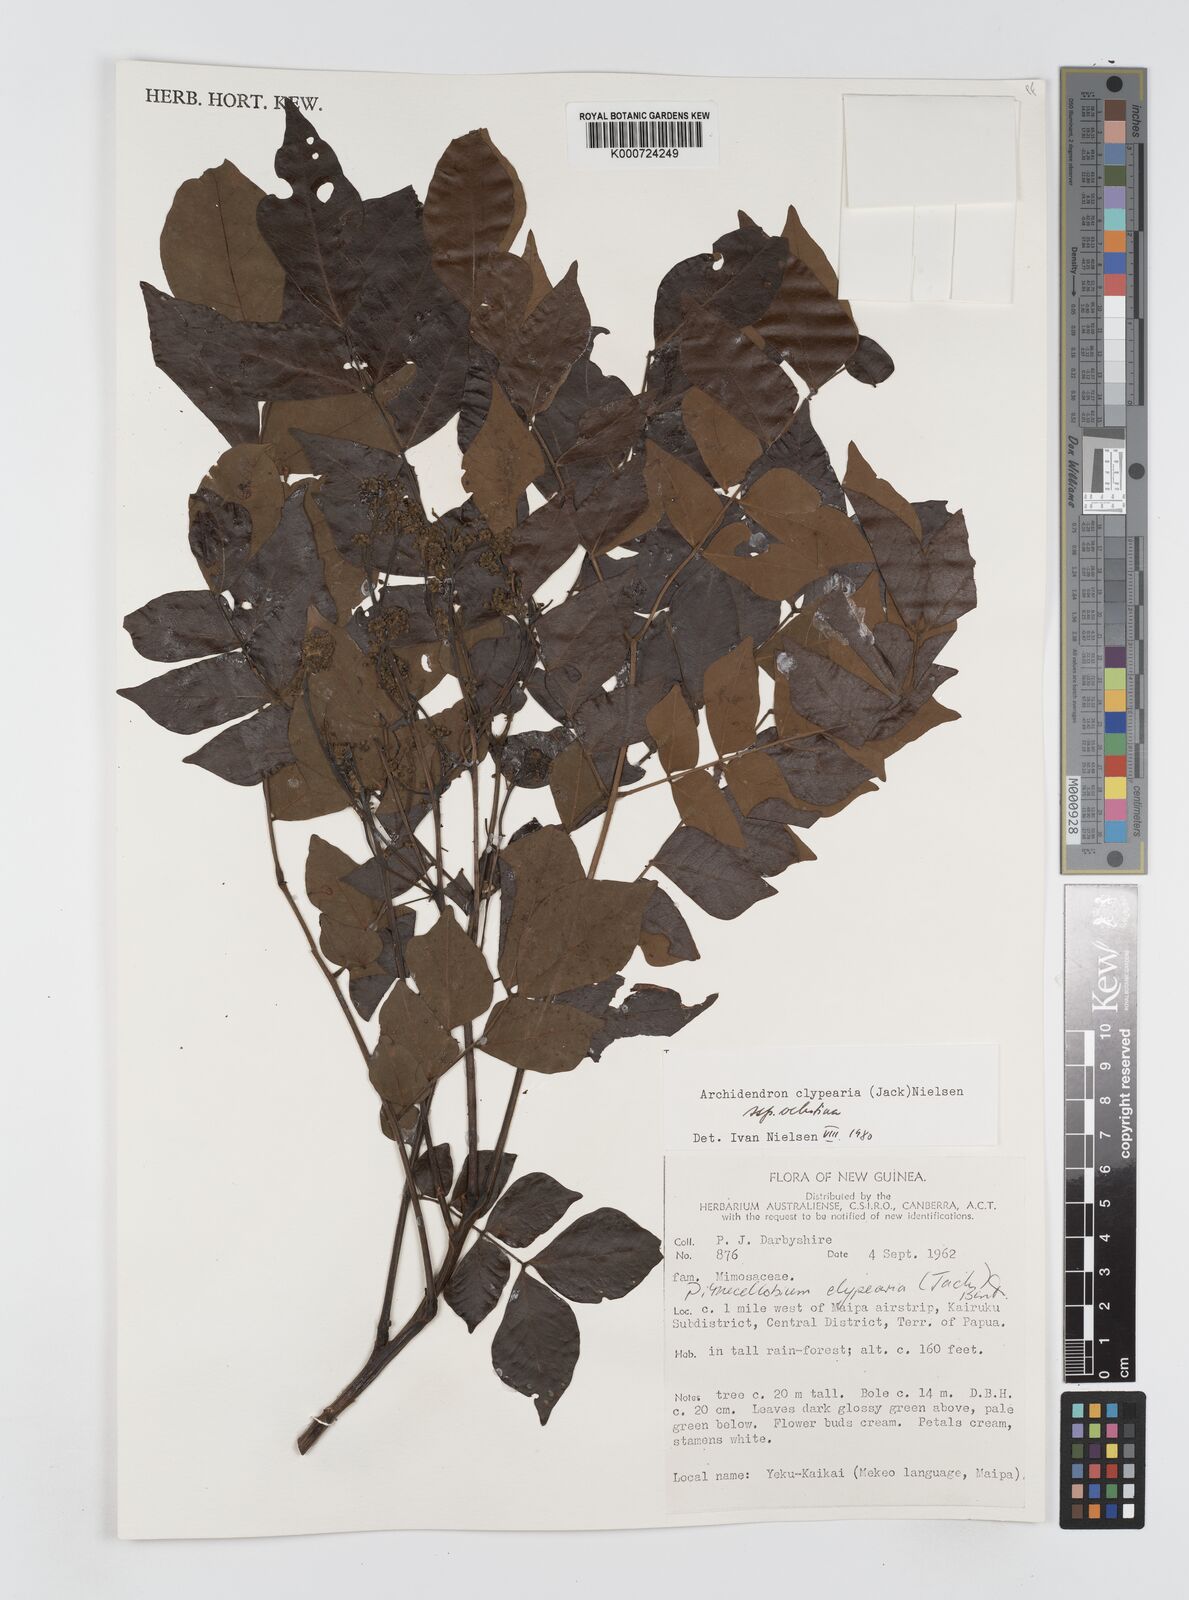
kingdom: Plantae
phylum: Tracheophyta
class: Magnoliopsida
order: Fabales
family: Fabaceae
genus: Archidendron
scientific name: Archidendron clypearia
